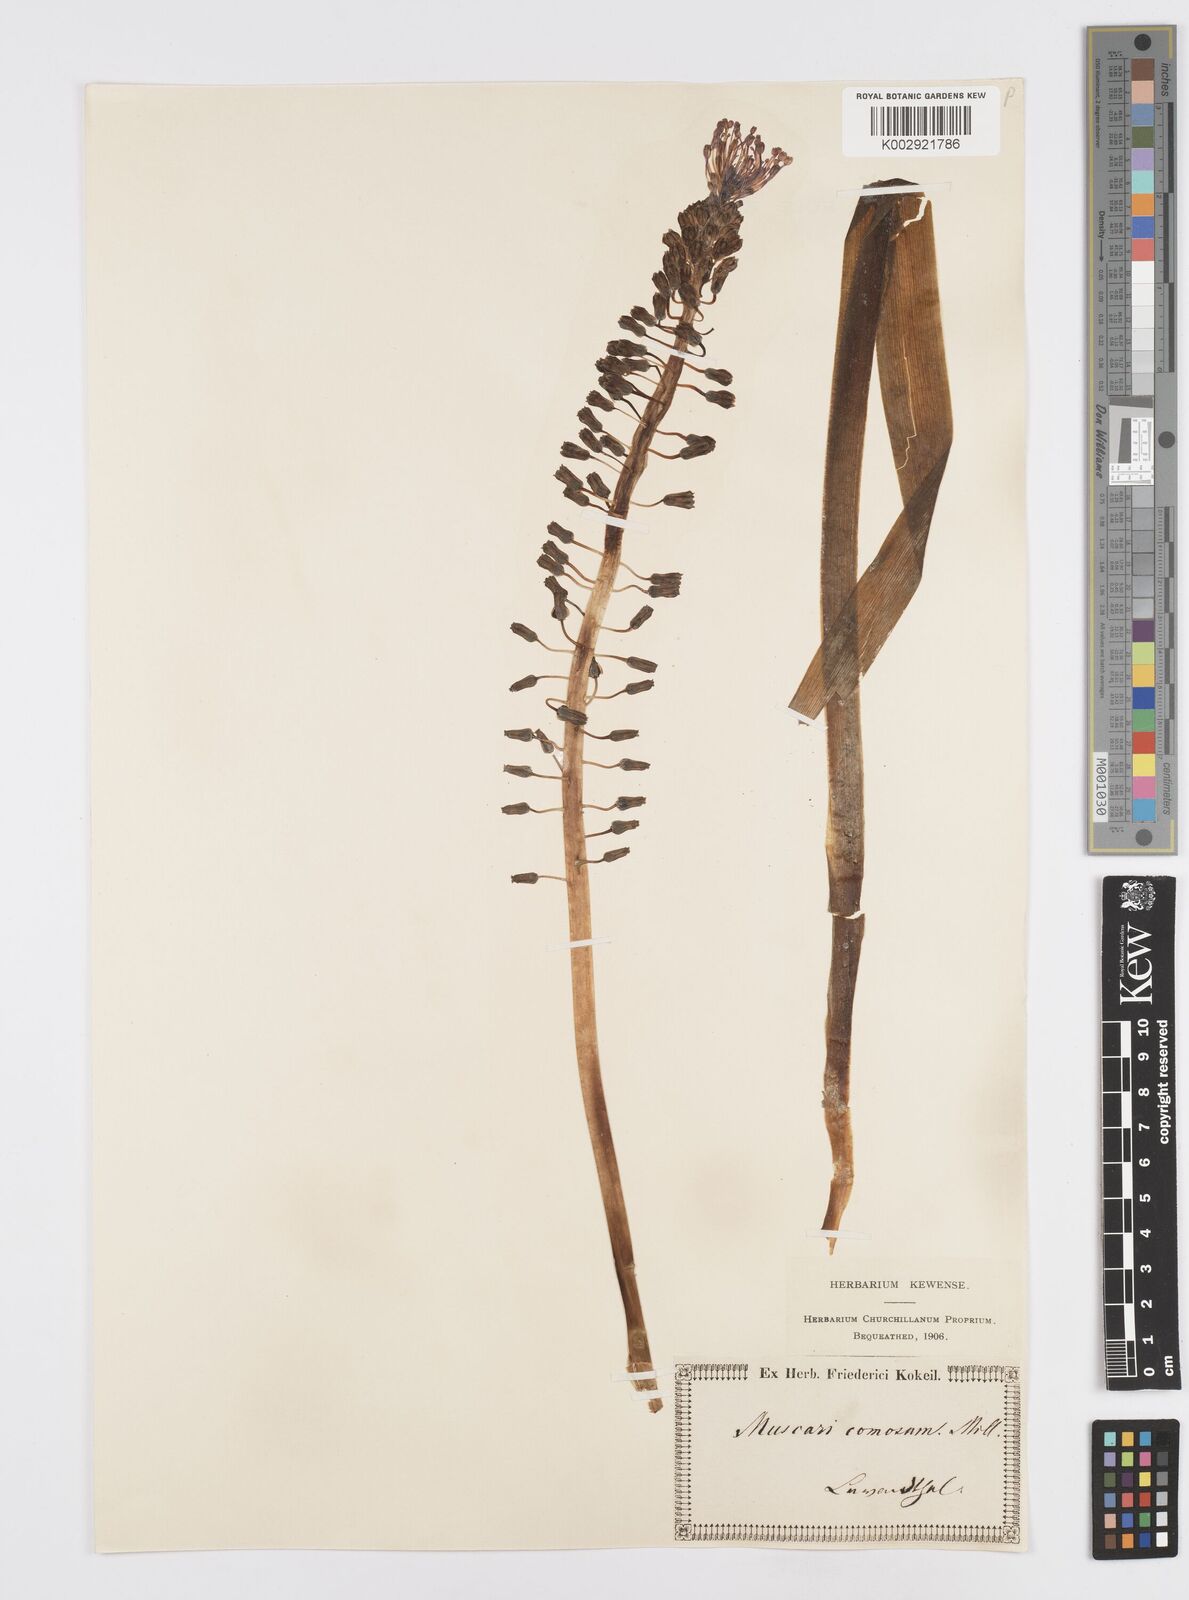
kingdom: Plantae
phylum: Tracheophyta
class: Liliopsida
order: Asparagales
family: Asparagaceae
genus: Muscari
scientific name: Muscari comosum
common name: Tassel hyacinth
